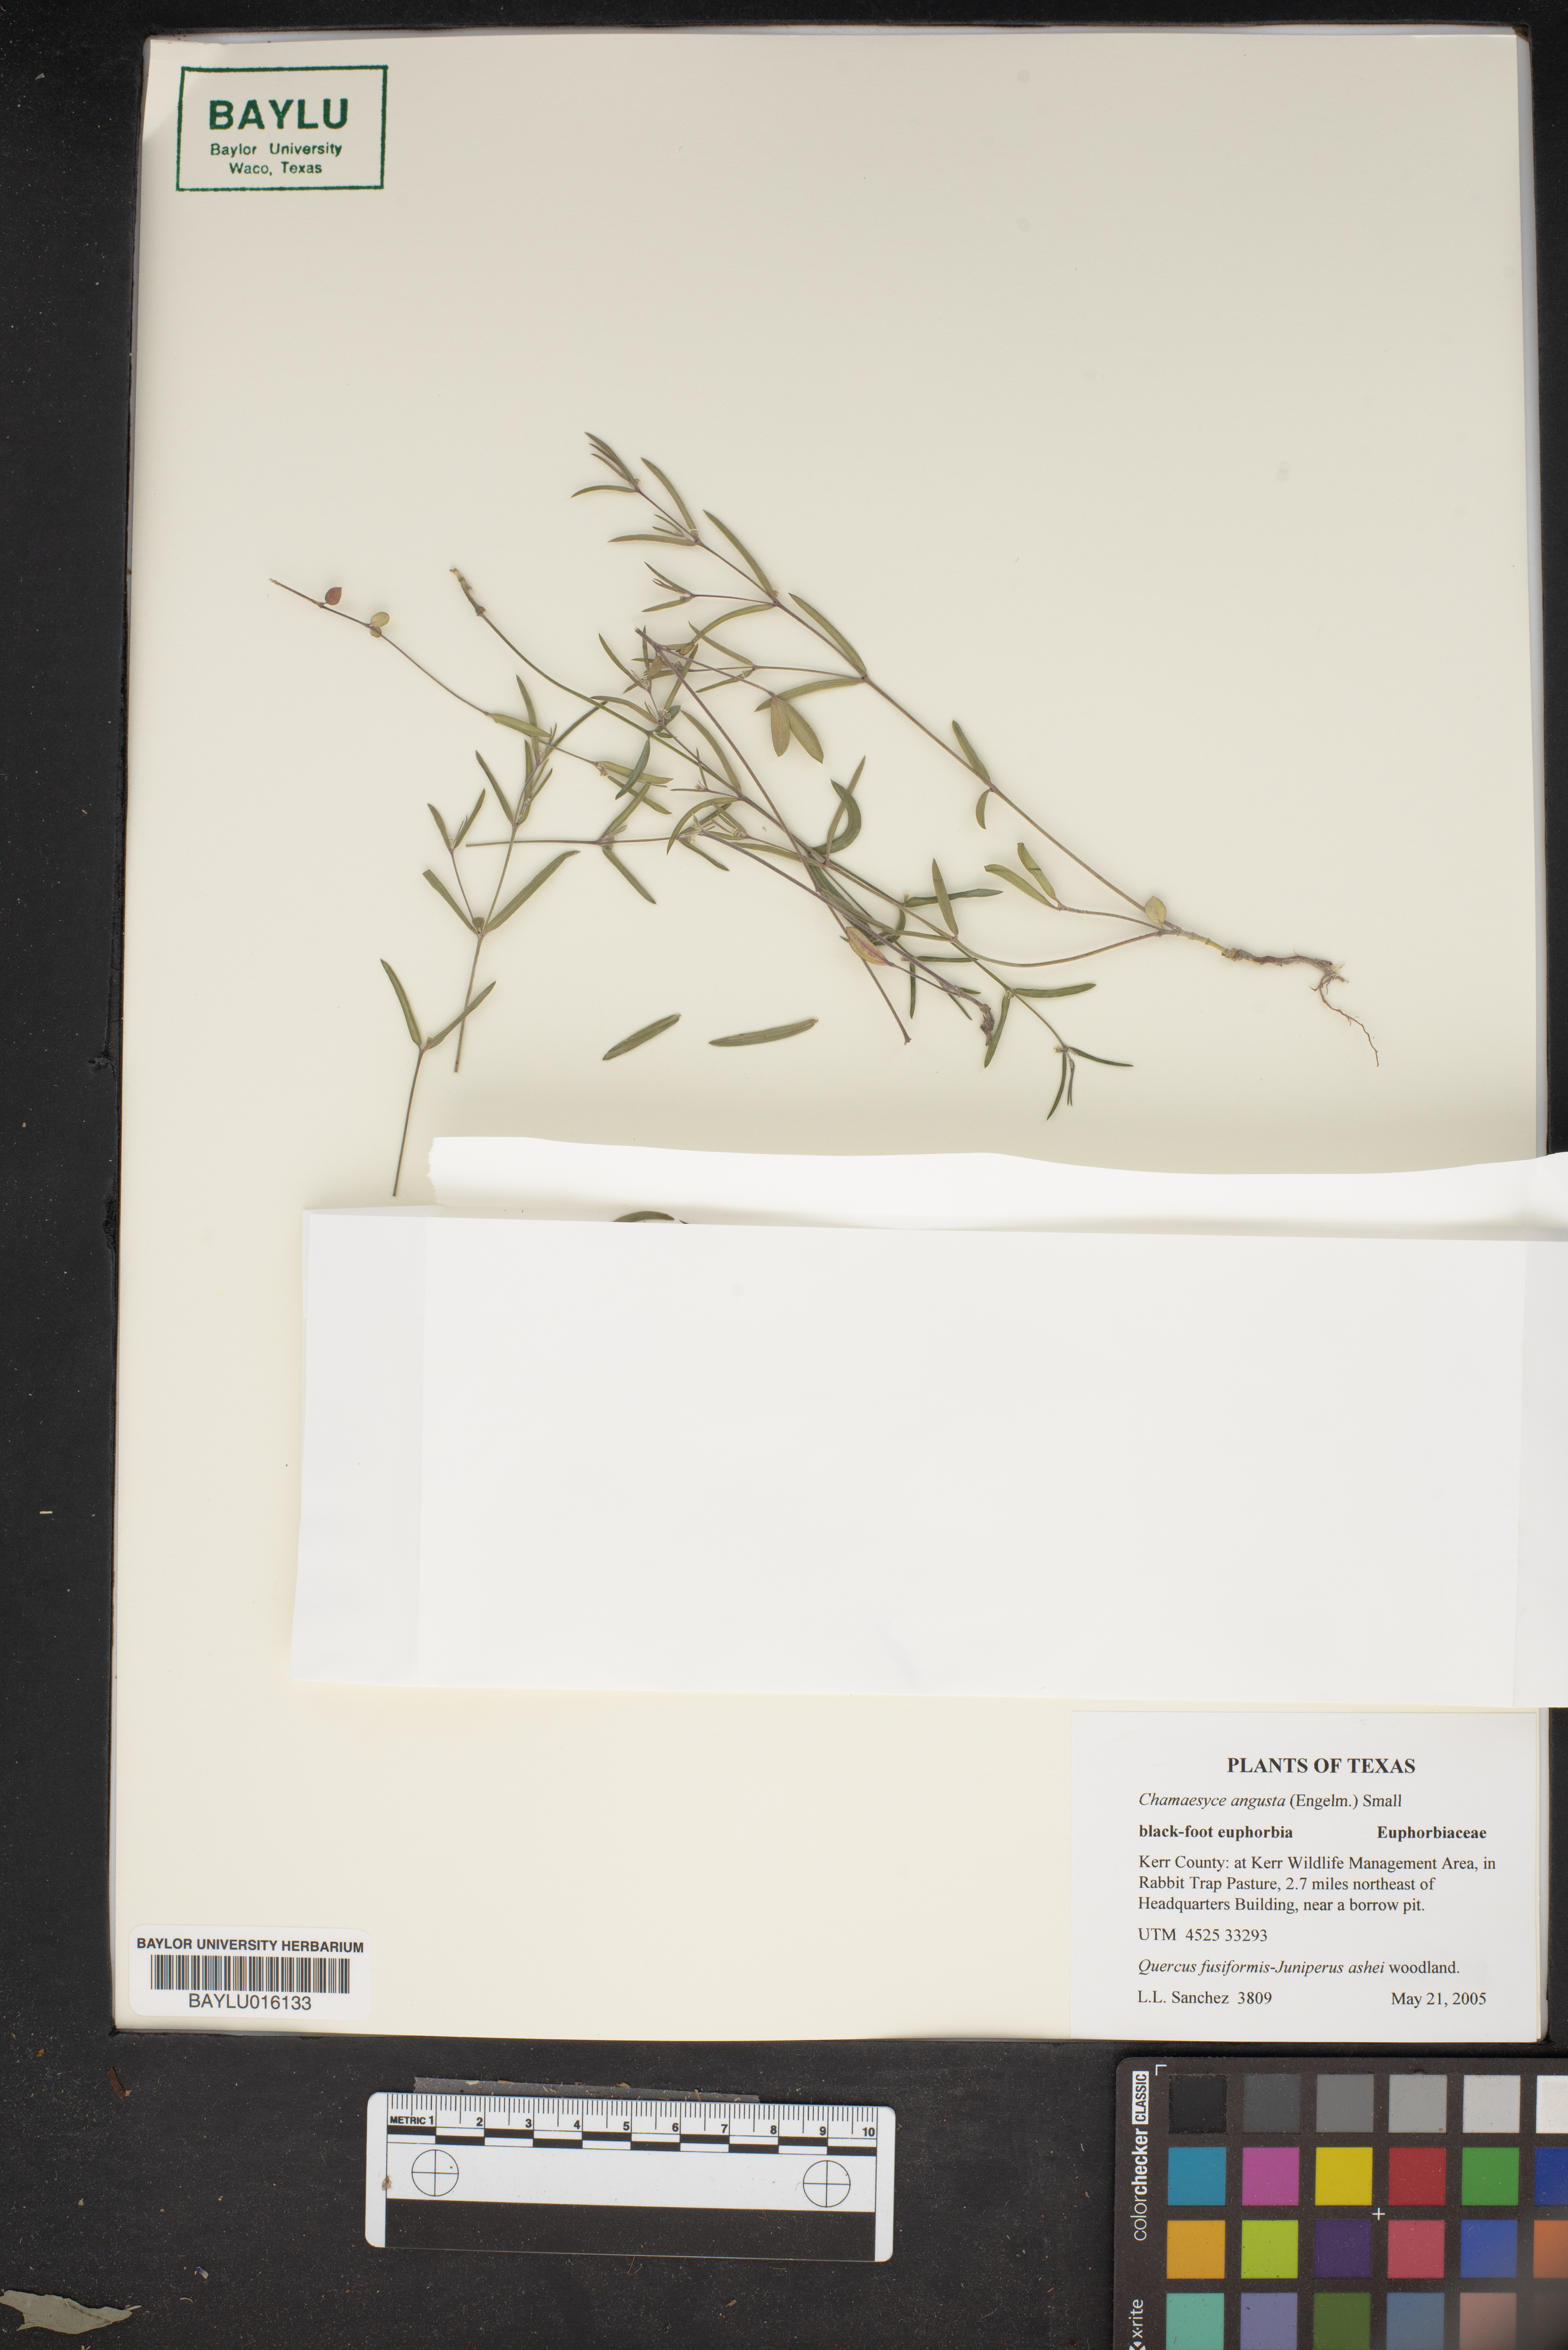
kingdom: Plantae
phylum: Tracheophyta
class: Magnoliopsida
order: Malpighiales
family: Euphorbiaceae
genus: Euphorbia
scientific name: Euphorbia angusta
